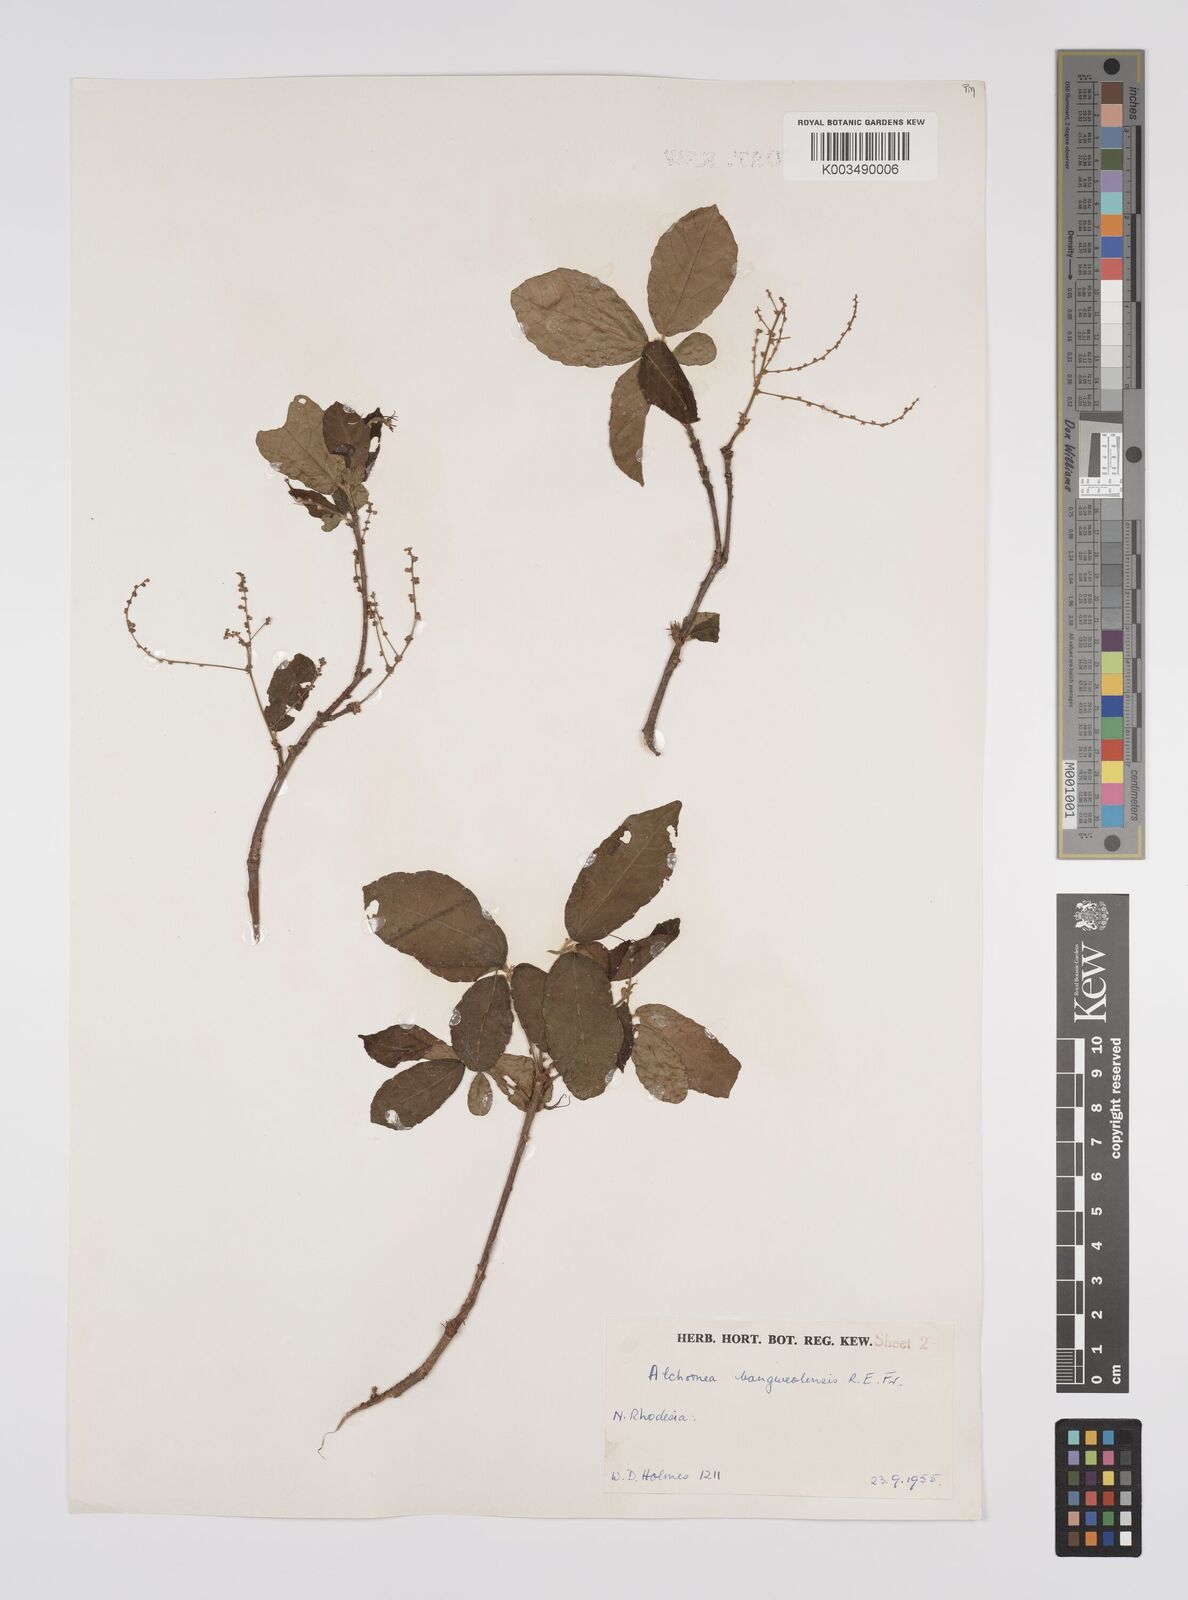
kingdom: Plantae
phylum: Tracheophyta
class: Magnoliopsida
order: Malpighiales
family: Euphorbiaceae
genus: Alchornea
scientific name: Alchornea yambuyaensis
